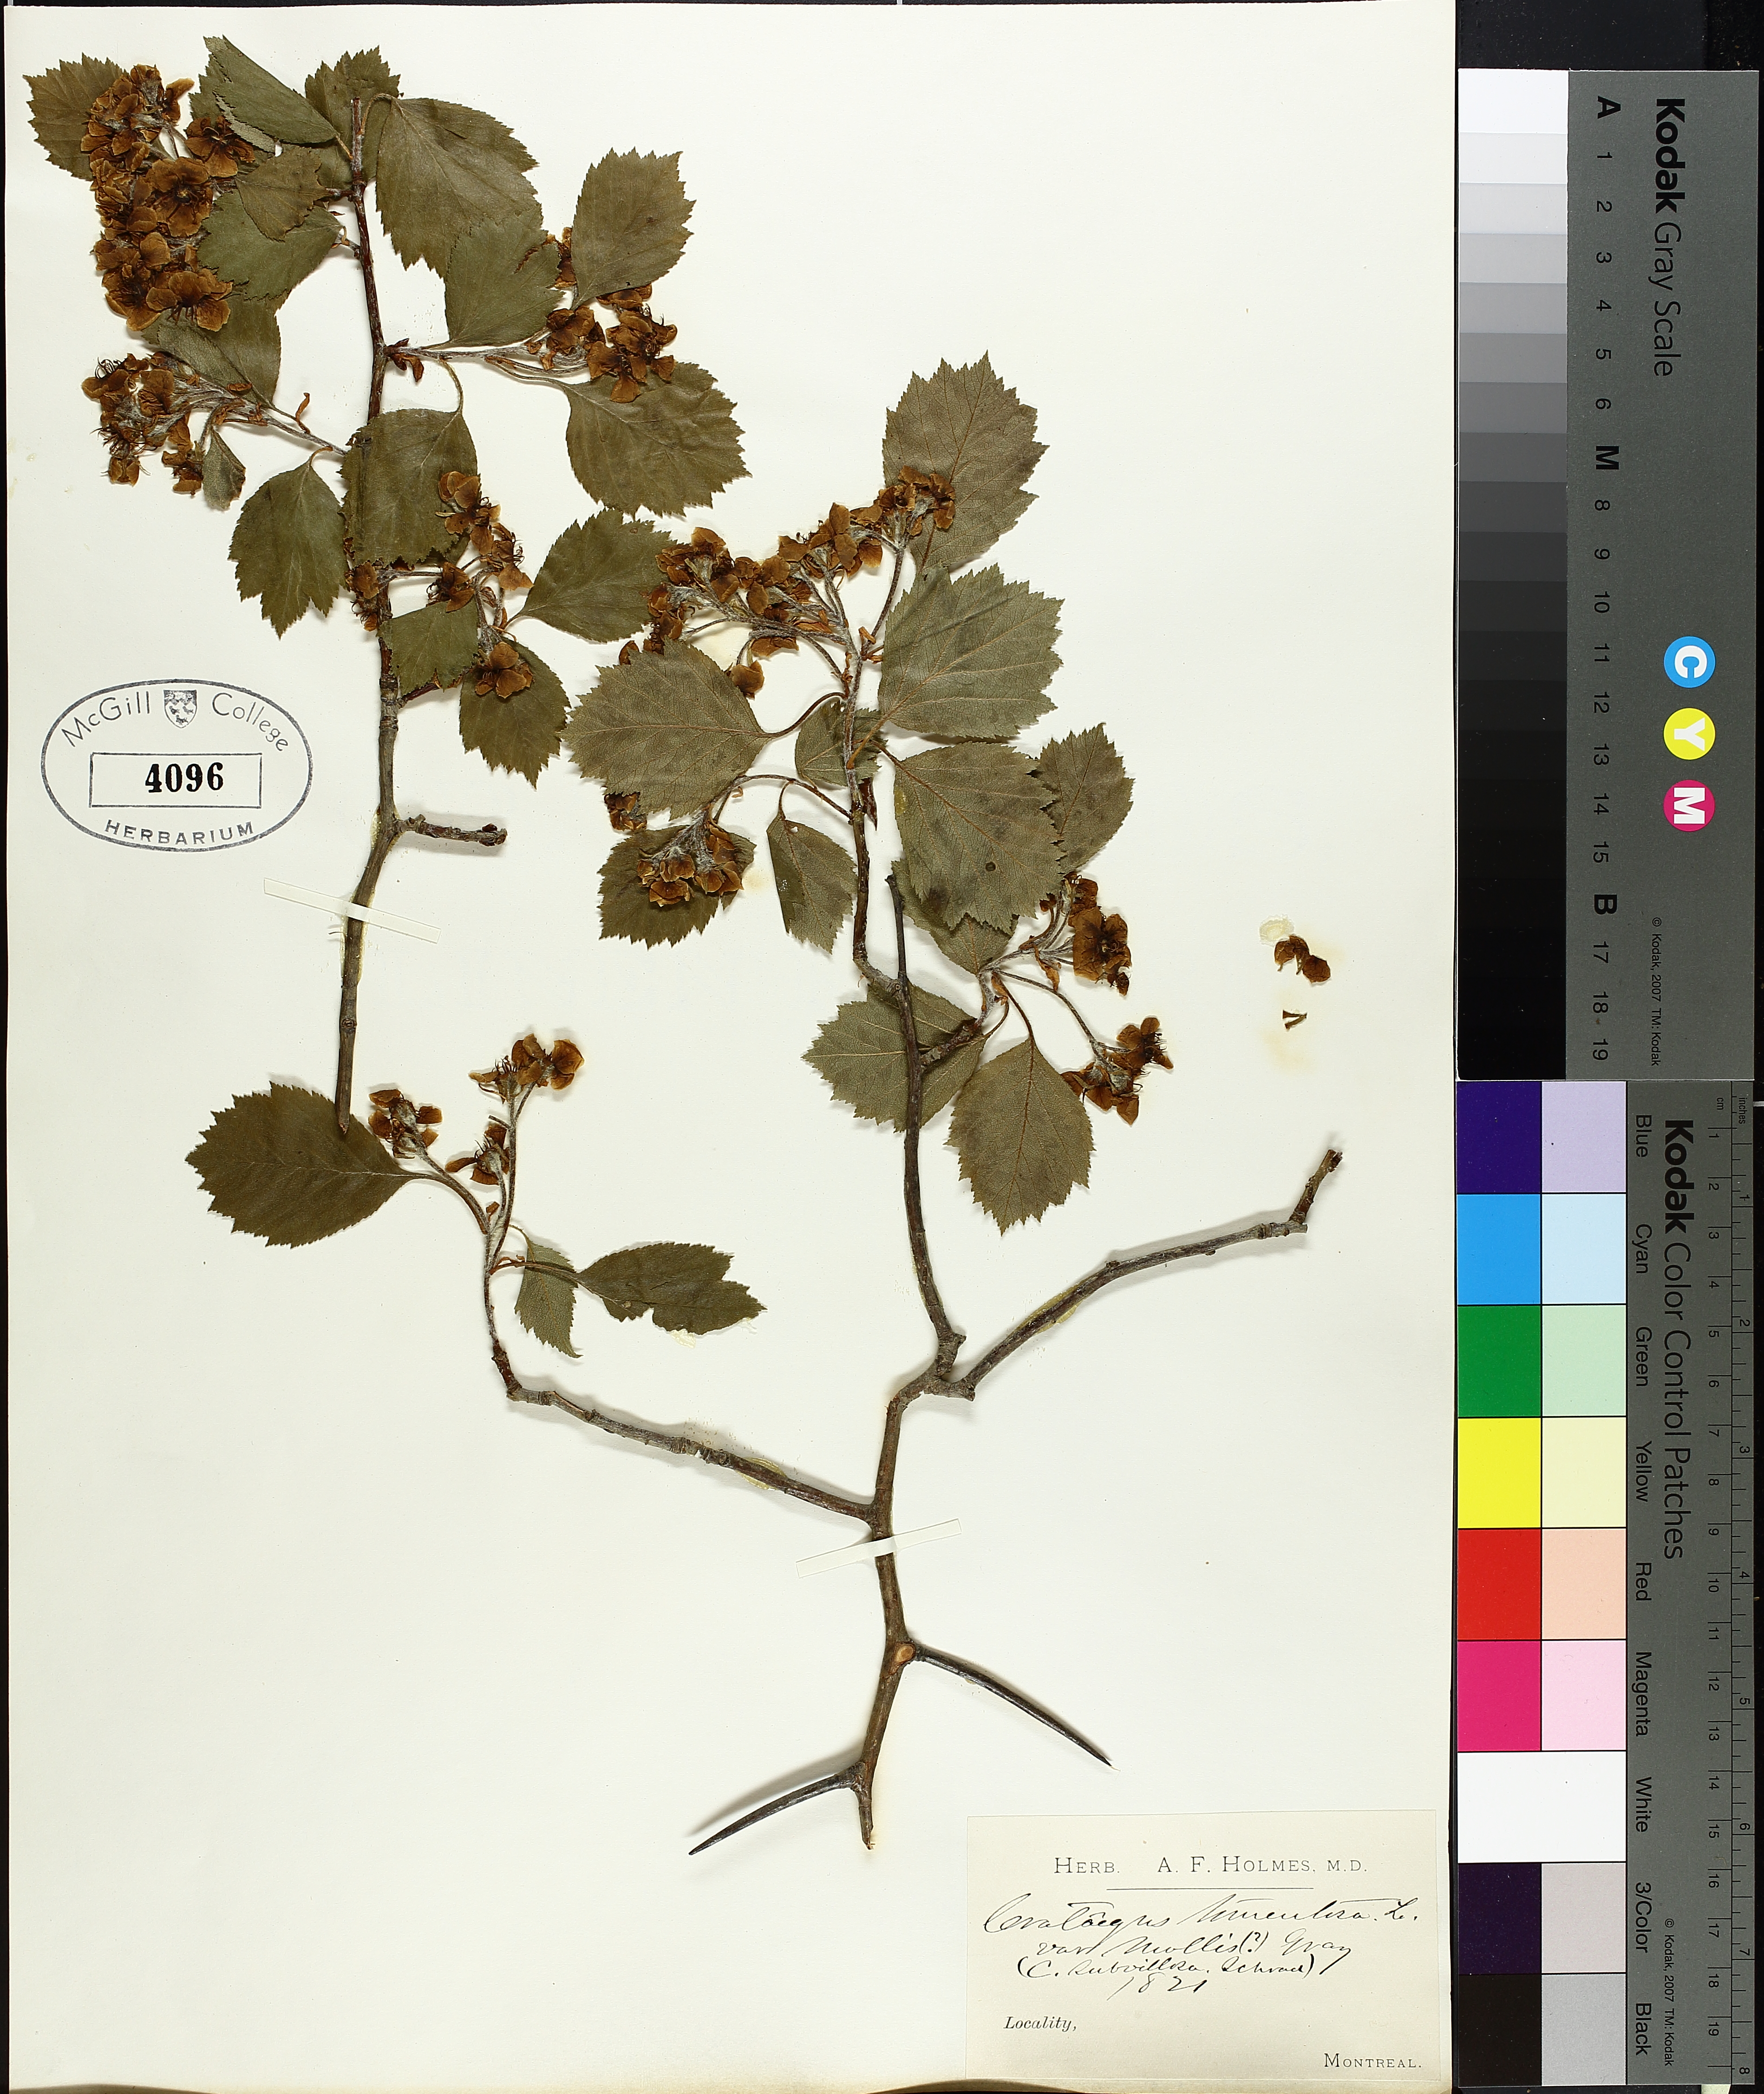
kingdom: Plantae
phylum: Tracheophyta
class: Magnoliopsida
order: Rosales
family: Rosaceae
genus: Crataegus
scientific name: Crataegus calpodendron
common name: Pear hawthorn
